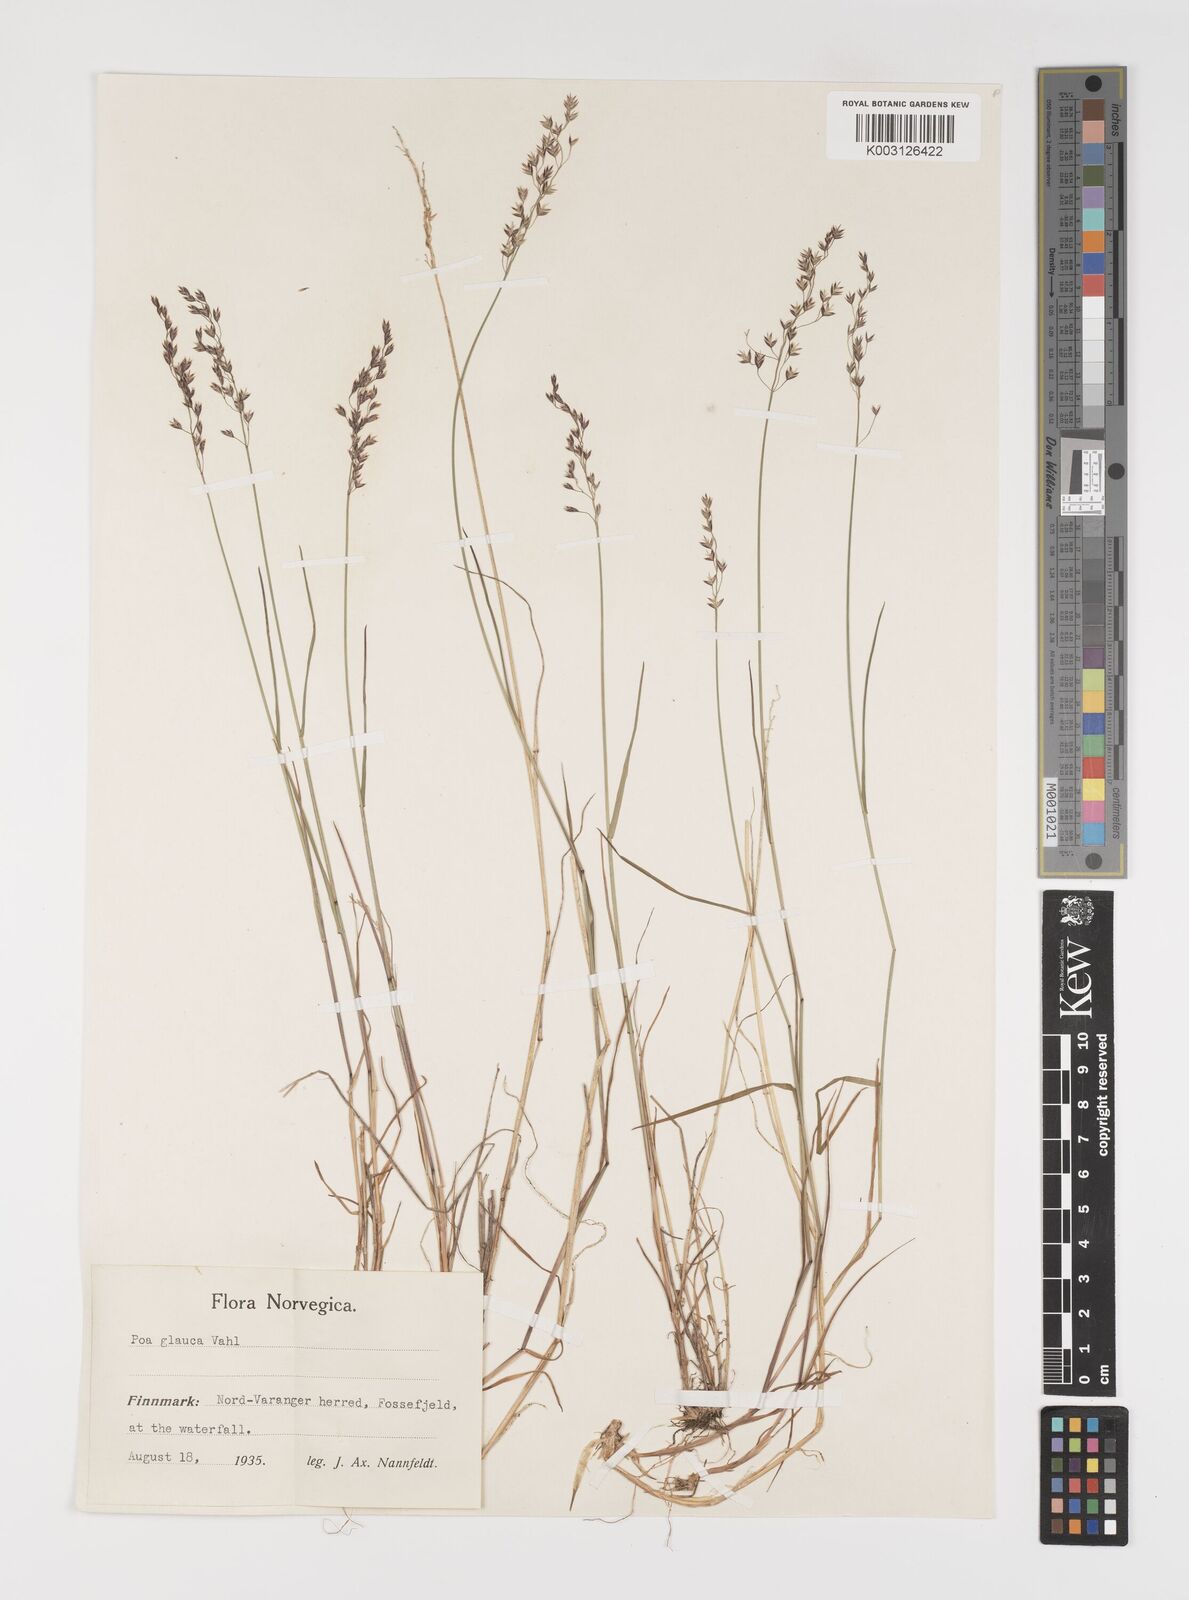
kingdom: Plantae
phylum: Tracheophyta
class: Liliopsida
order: Poales
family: Poaceae
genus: Poa
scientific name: Poa nemoralis
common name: Wood bluegrass
